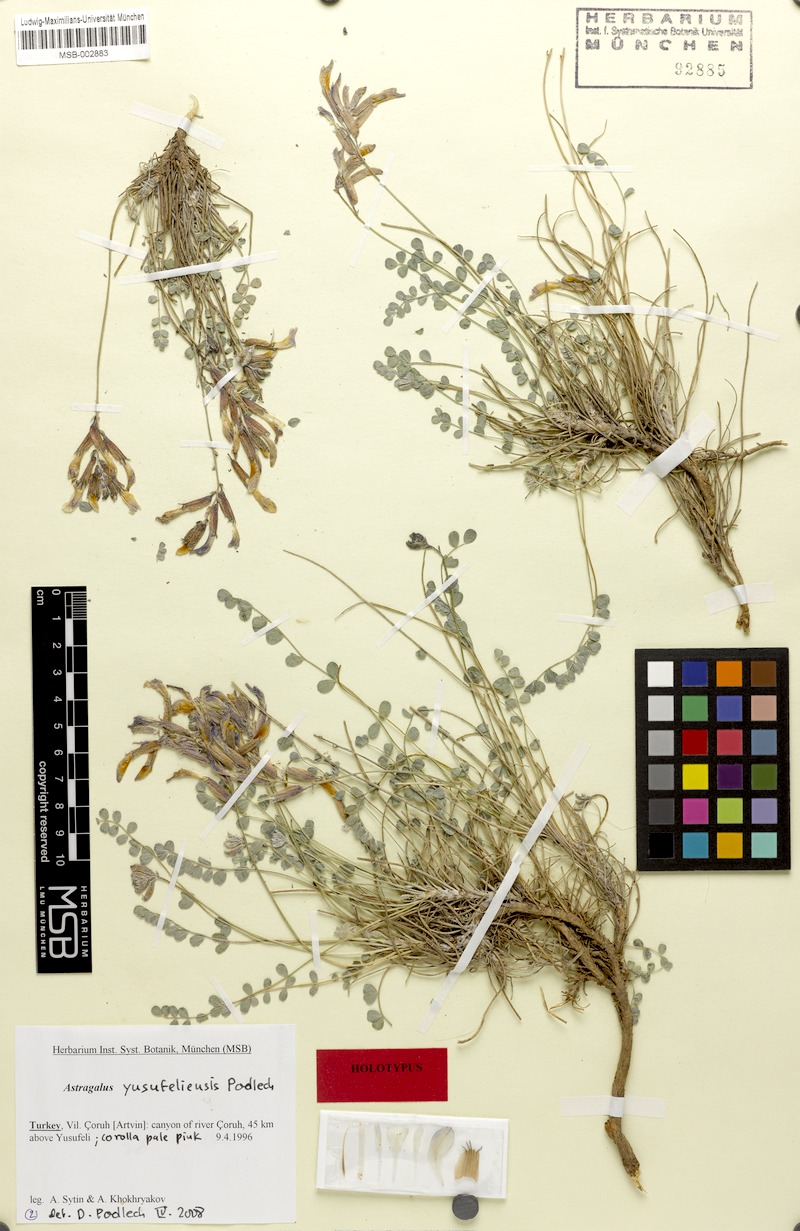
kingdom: Plantae
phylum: Tracheophyta
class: Magnoliopsida
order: Fabales
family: Fabaceae
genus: Astragalus
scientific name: Astragalus czorochensis
